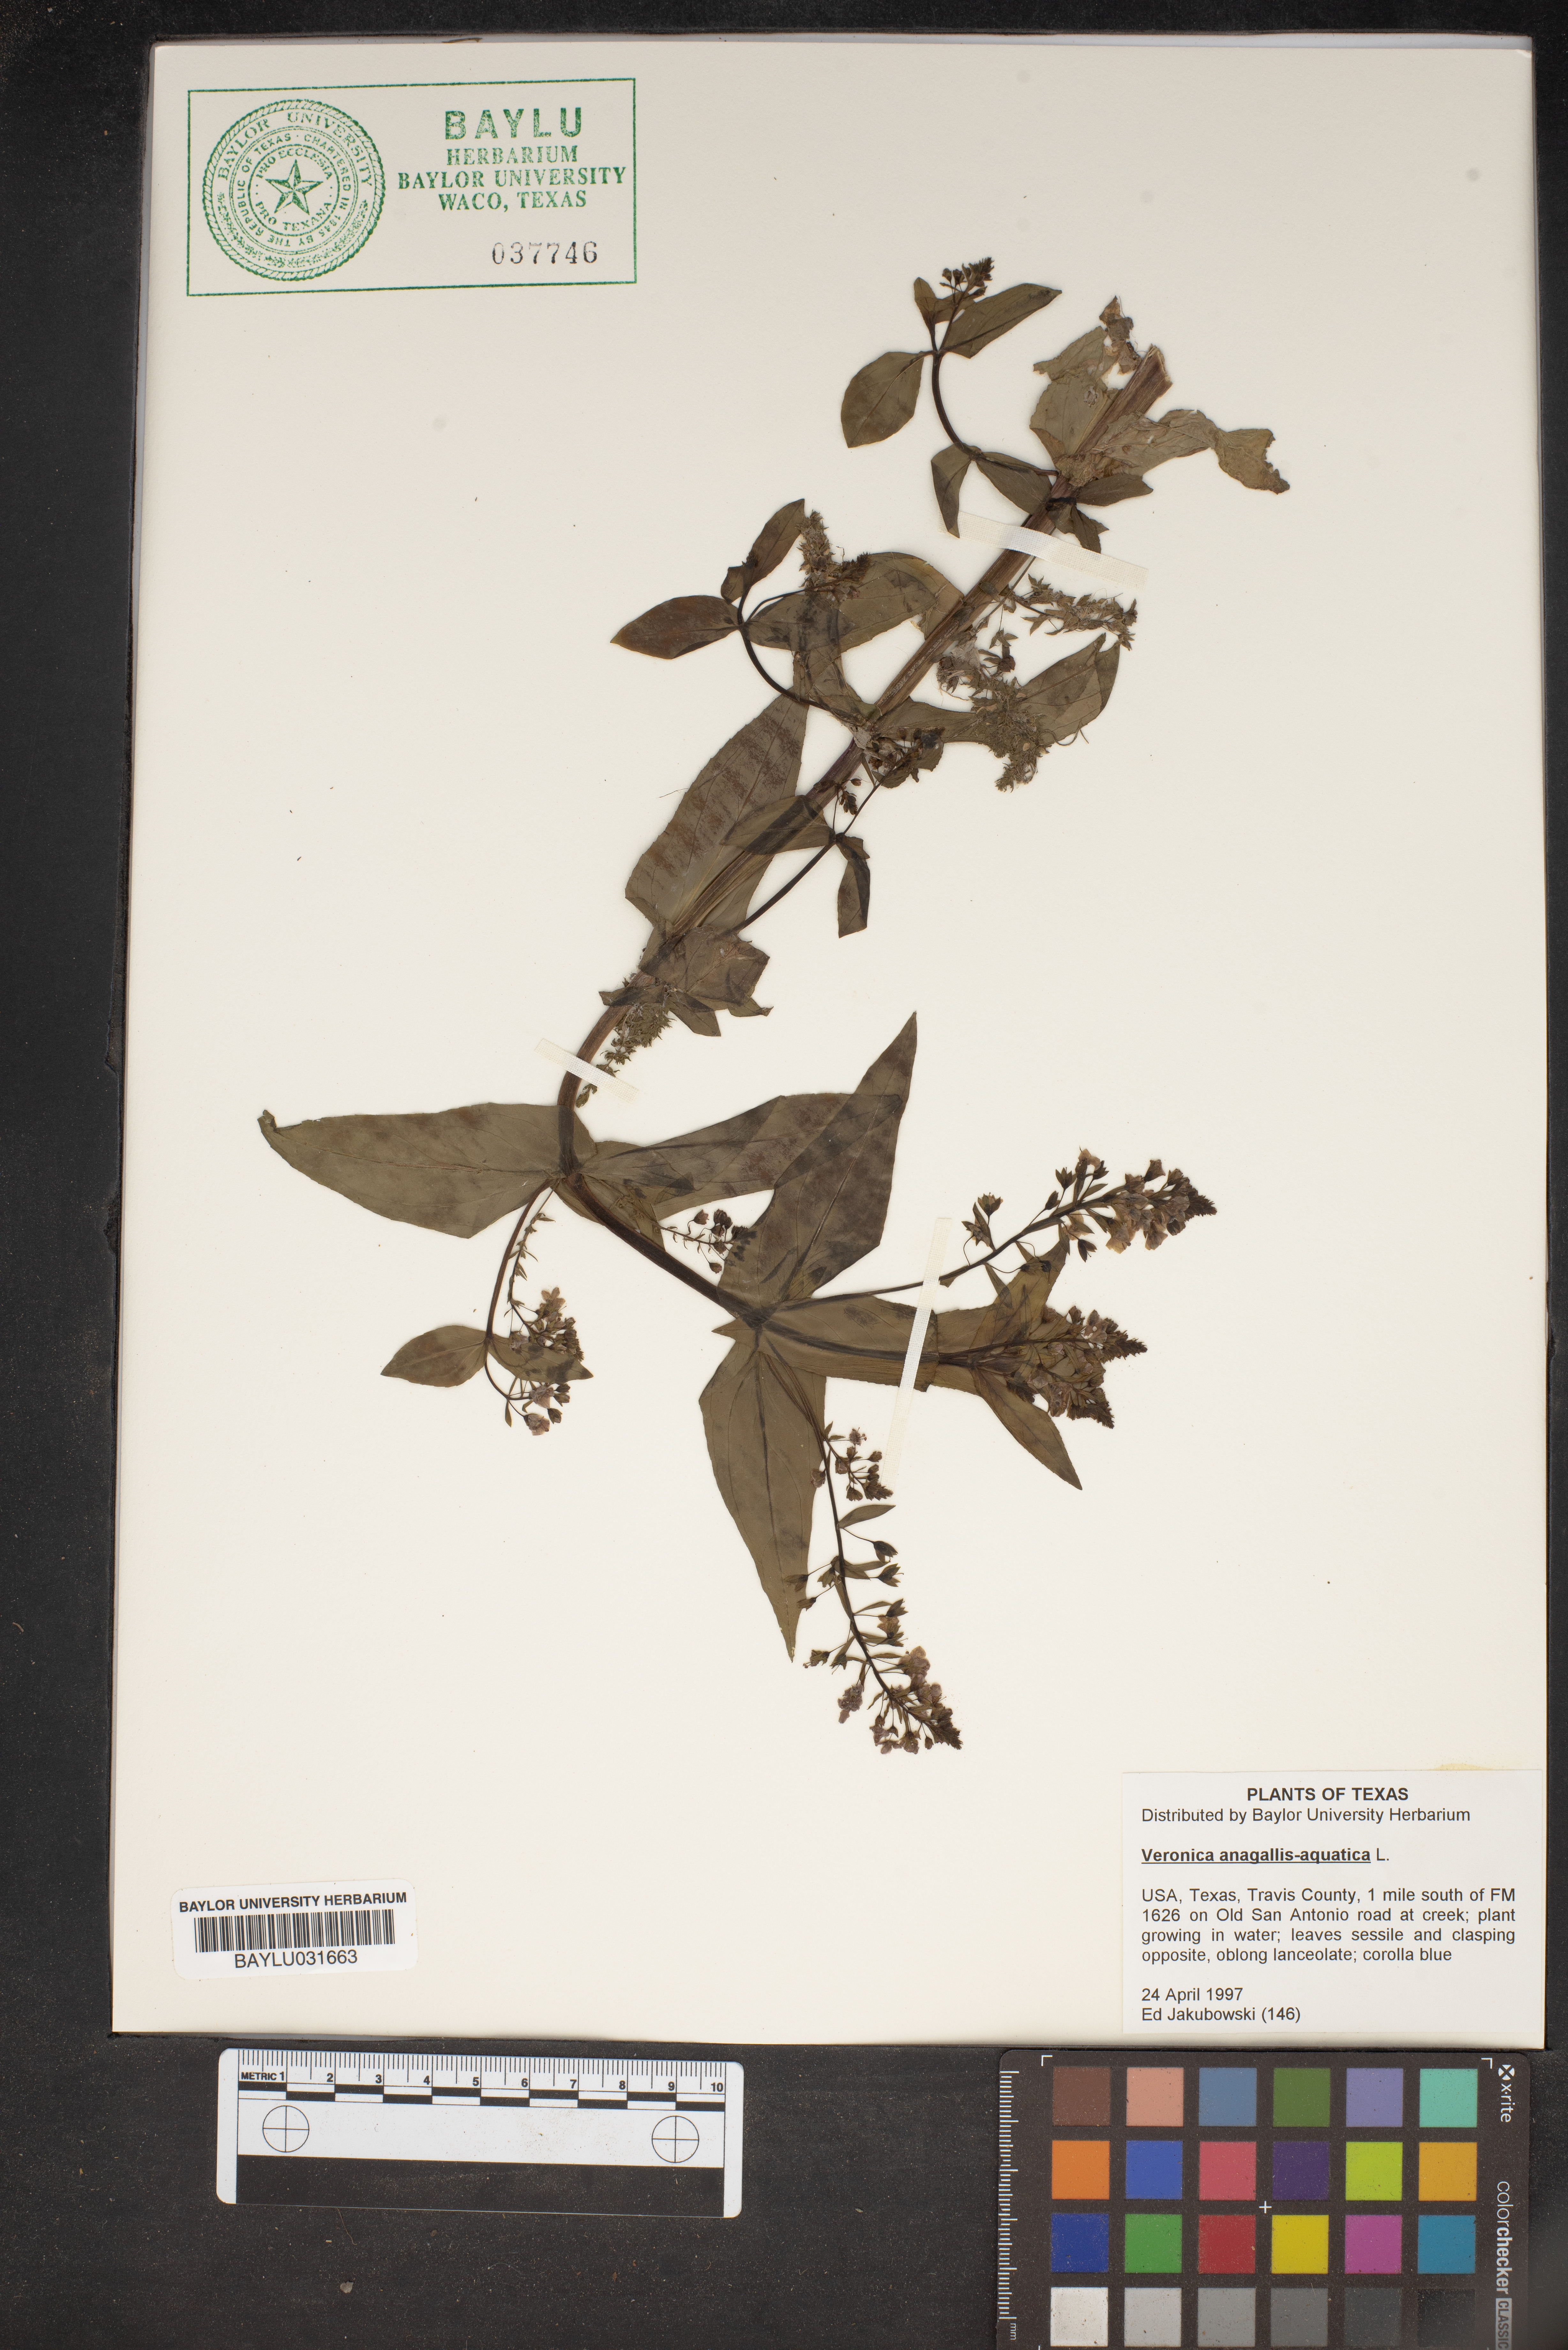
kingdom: Plantae
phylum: Tracheophyta
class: Magnoliopsida
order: Lamiales
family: Plantaginaceae
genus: Veronica
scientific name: Veronica anagallis-aquatica
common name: Water speedwell
